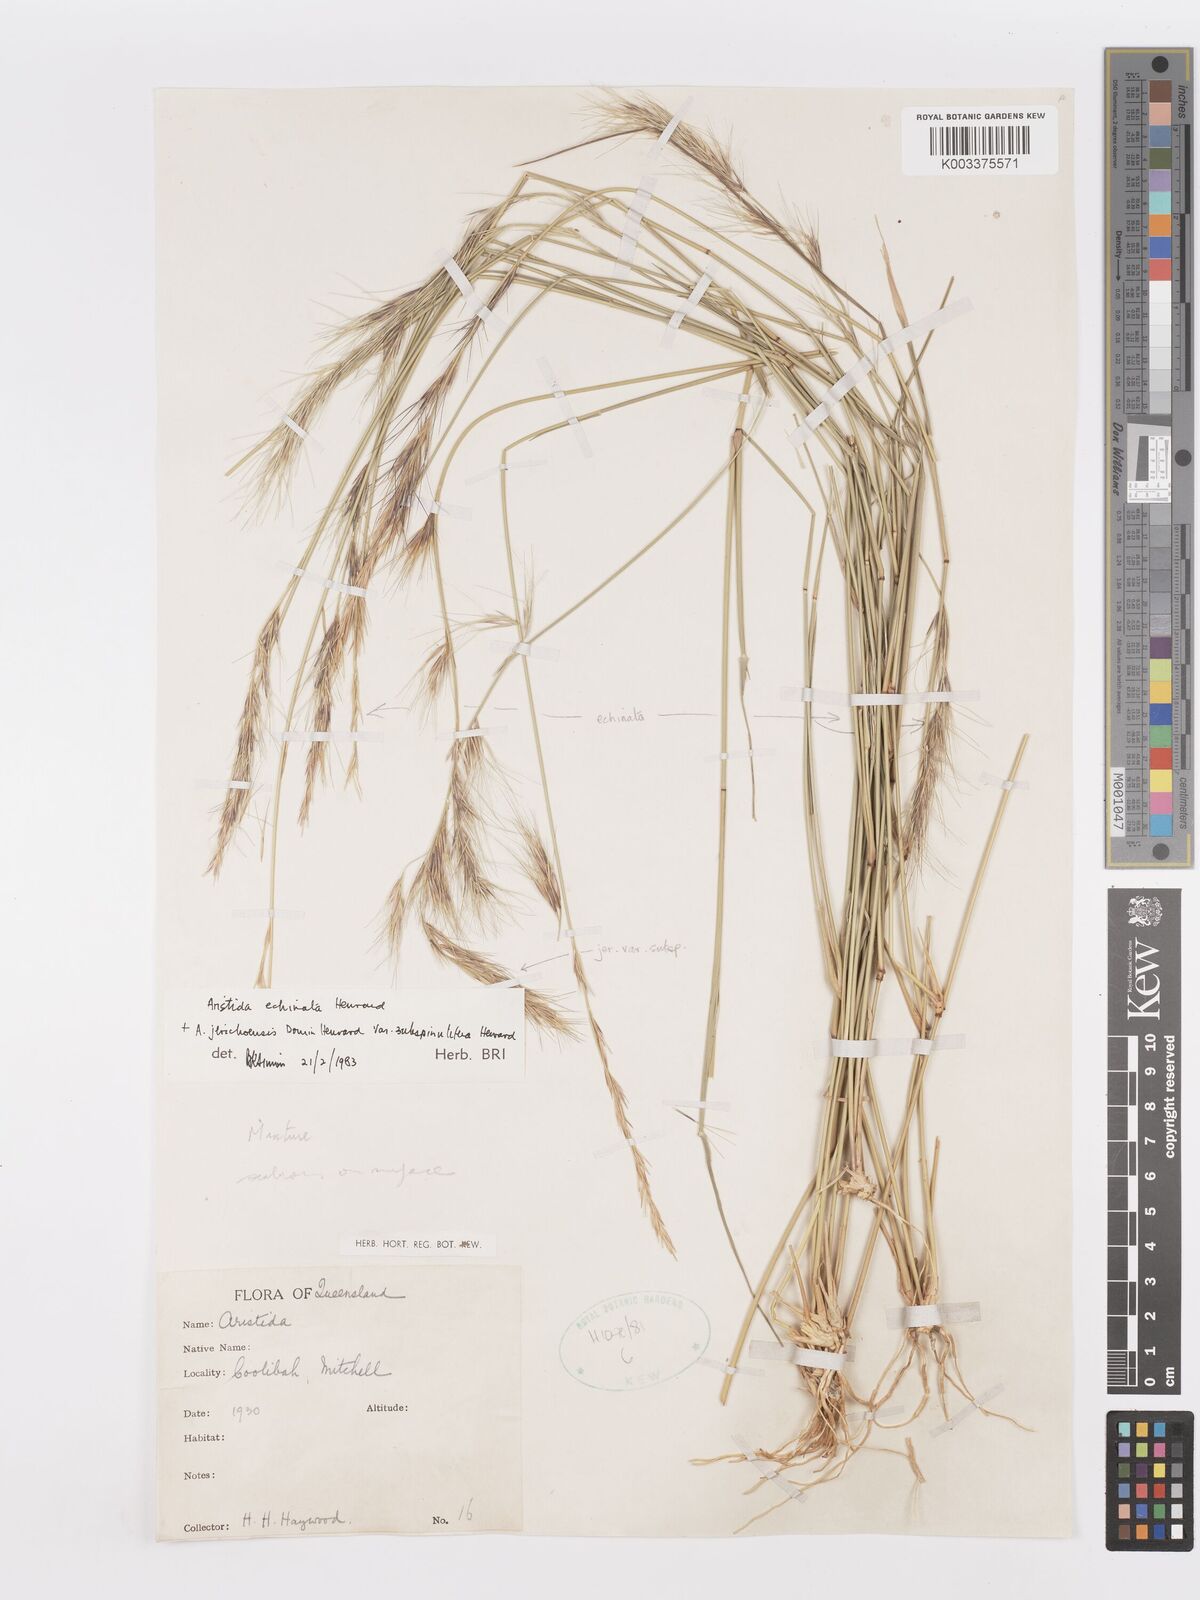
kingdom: Plantae
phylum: Tracheophyta
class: Liliopsida
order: Poales
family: Poaceae
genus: Aristida
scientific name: Aristida echinata
